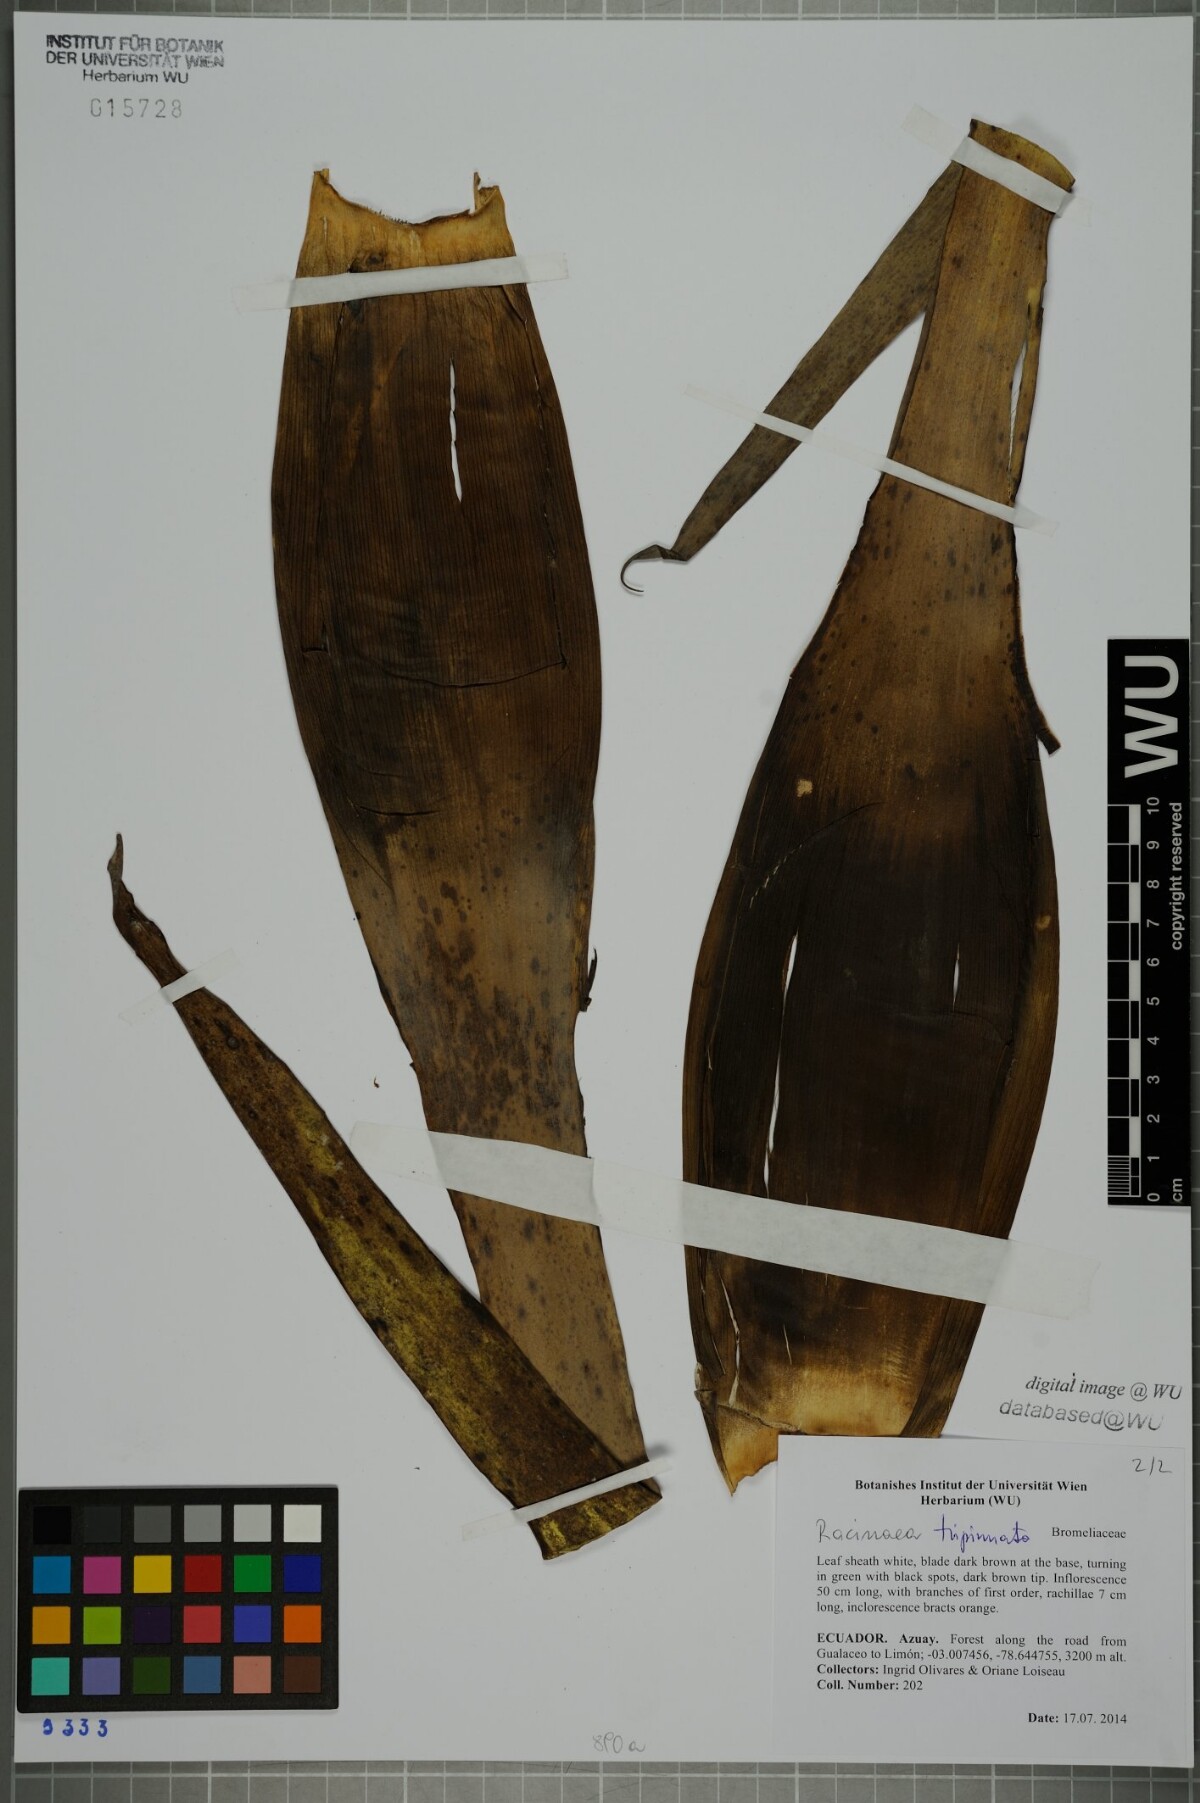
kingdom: Plantae
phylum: Tracheophyta
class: Liliopsida
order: Poales
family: Bromeliaceae
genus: Racinaea
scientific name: Racinaea tripinnata
